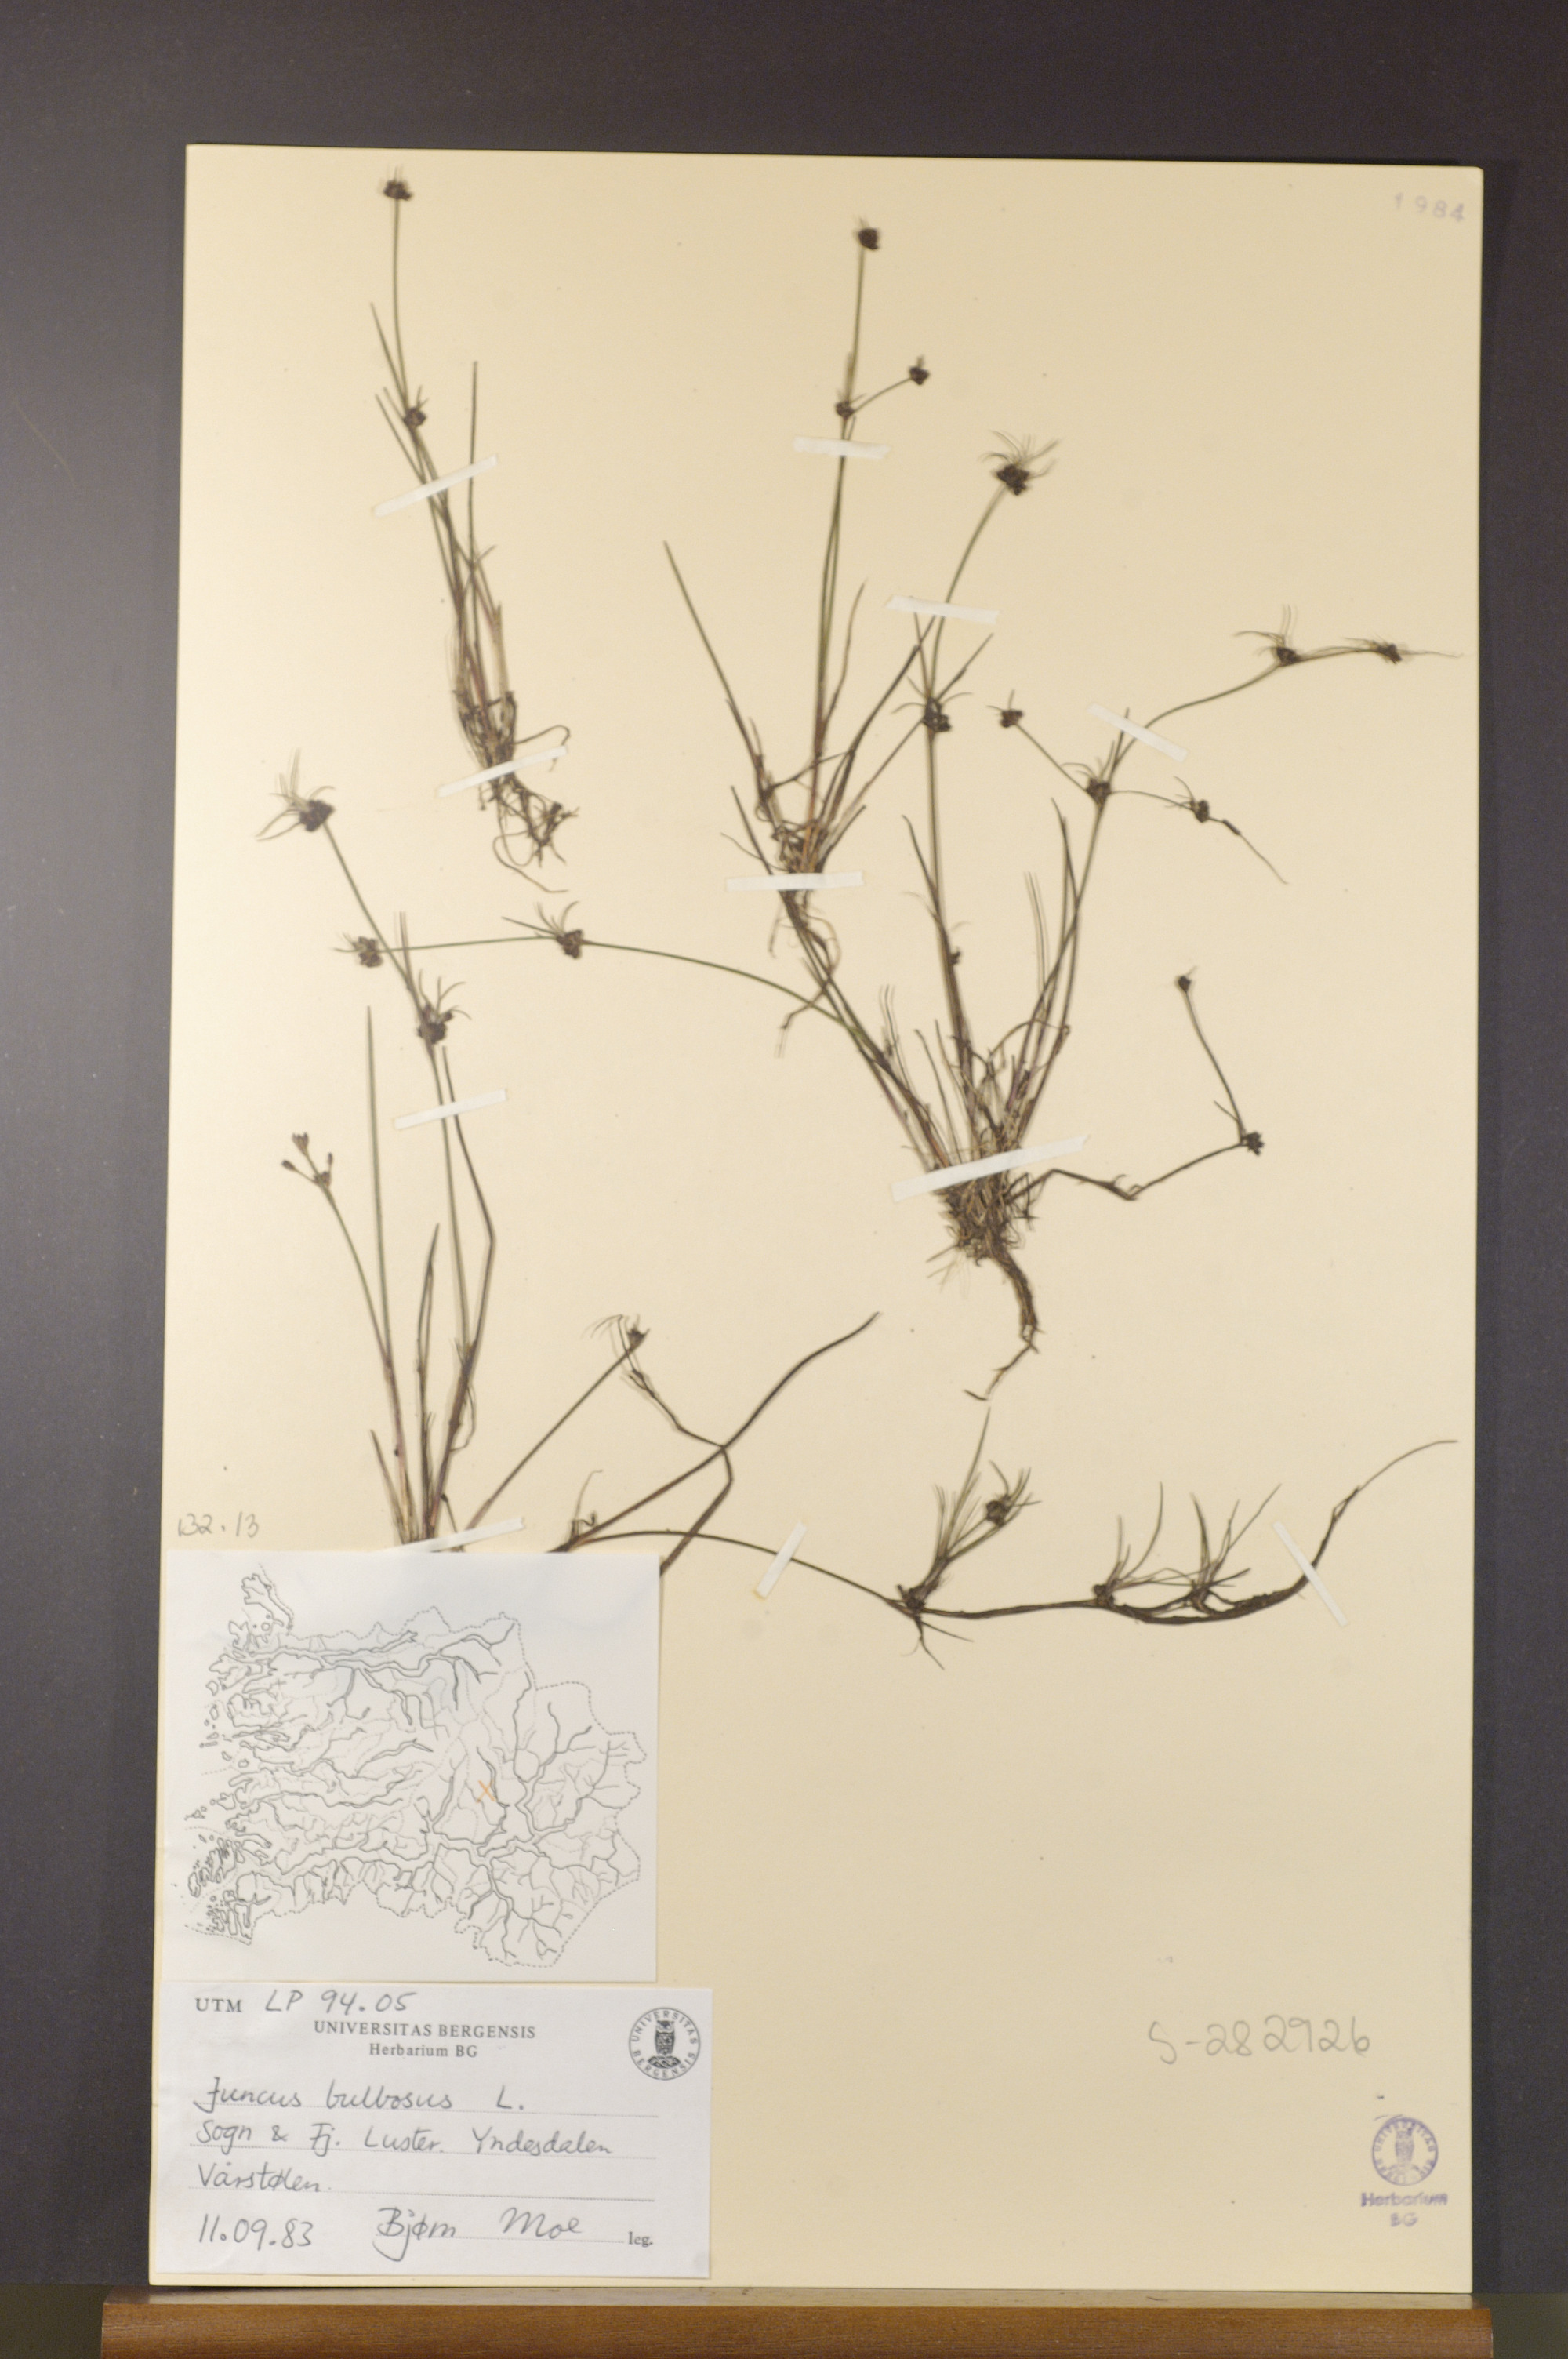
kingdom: Plantae
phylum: Tracheophyta
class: Liliopsida
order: Poales
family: Juncaceae
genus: Juncus
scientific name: Juncus compressus
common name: Round-fruited rush
